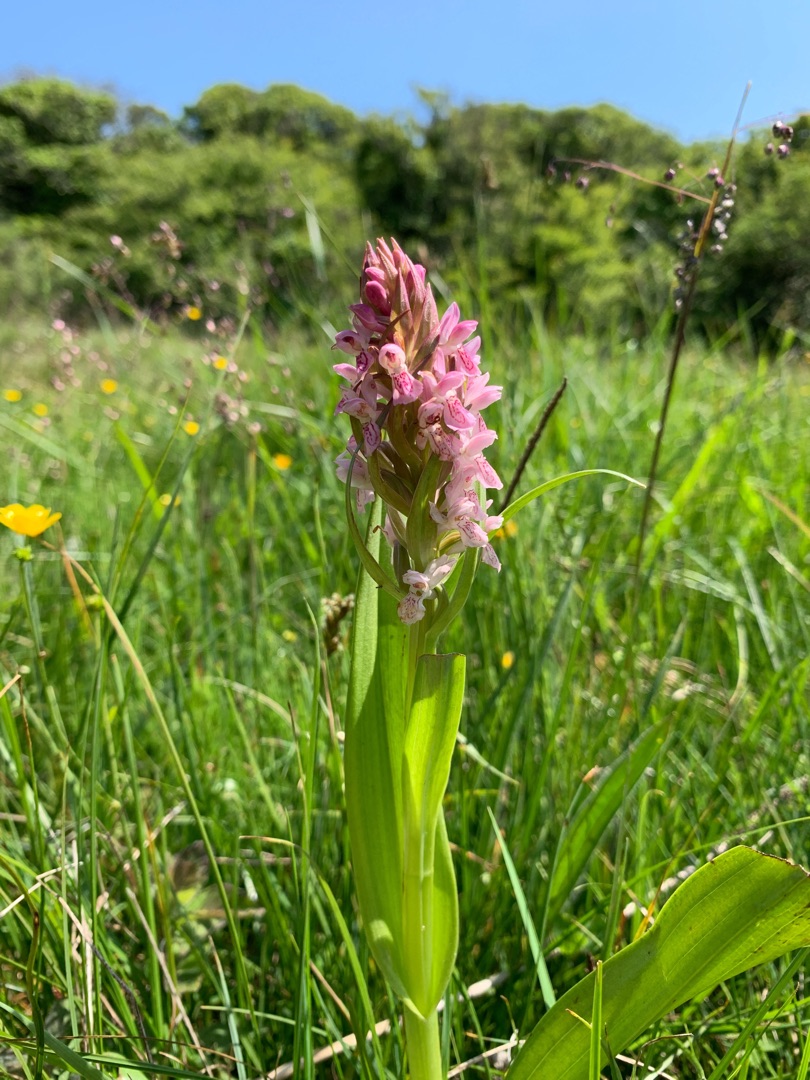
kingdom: Plantae
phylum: Tracheophyta
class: Liliopsida
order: Asparagales
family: Orchidaceae
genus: Dactylorhiza
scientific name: Dactylorhiza incarnata
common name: Kødfarvet gøgeurt
